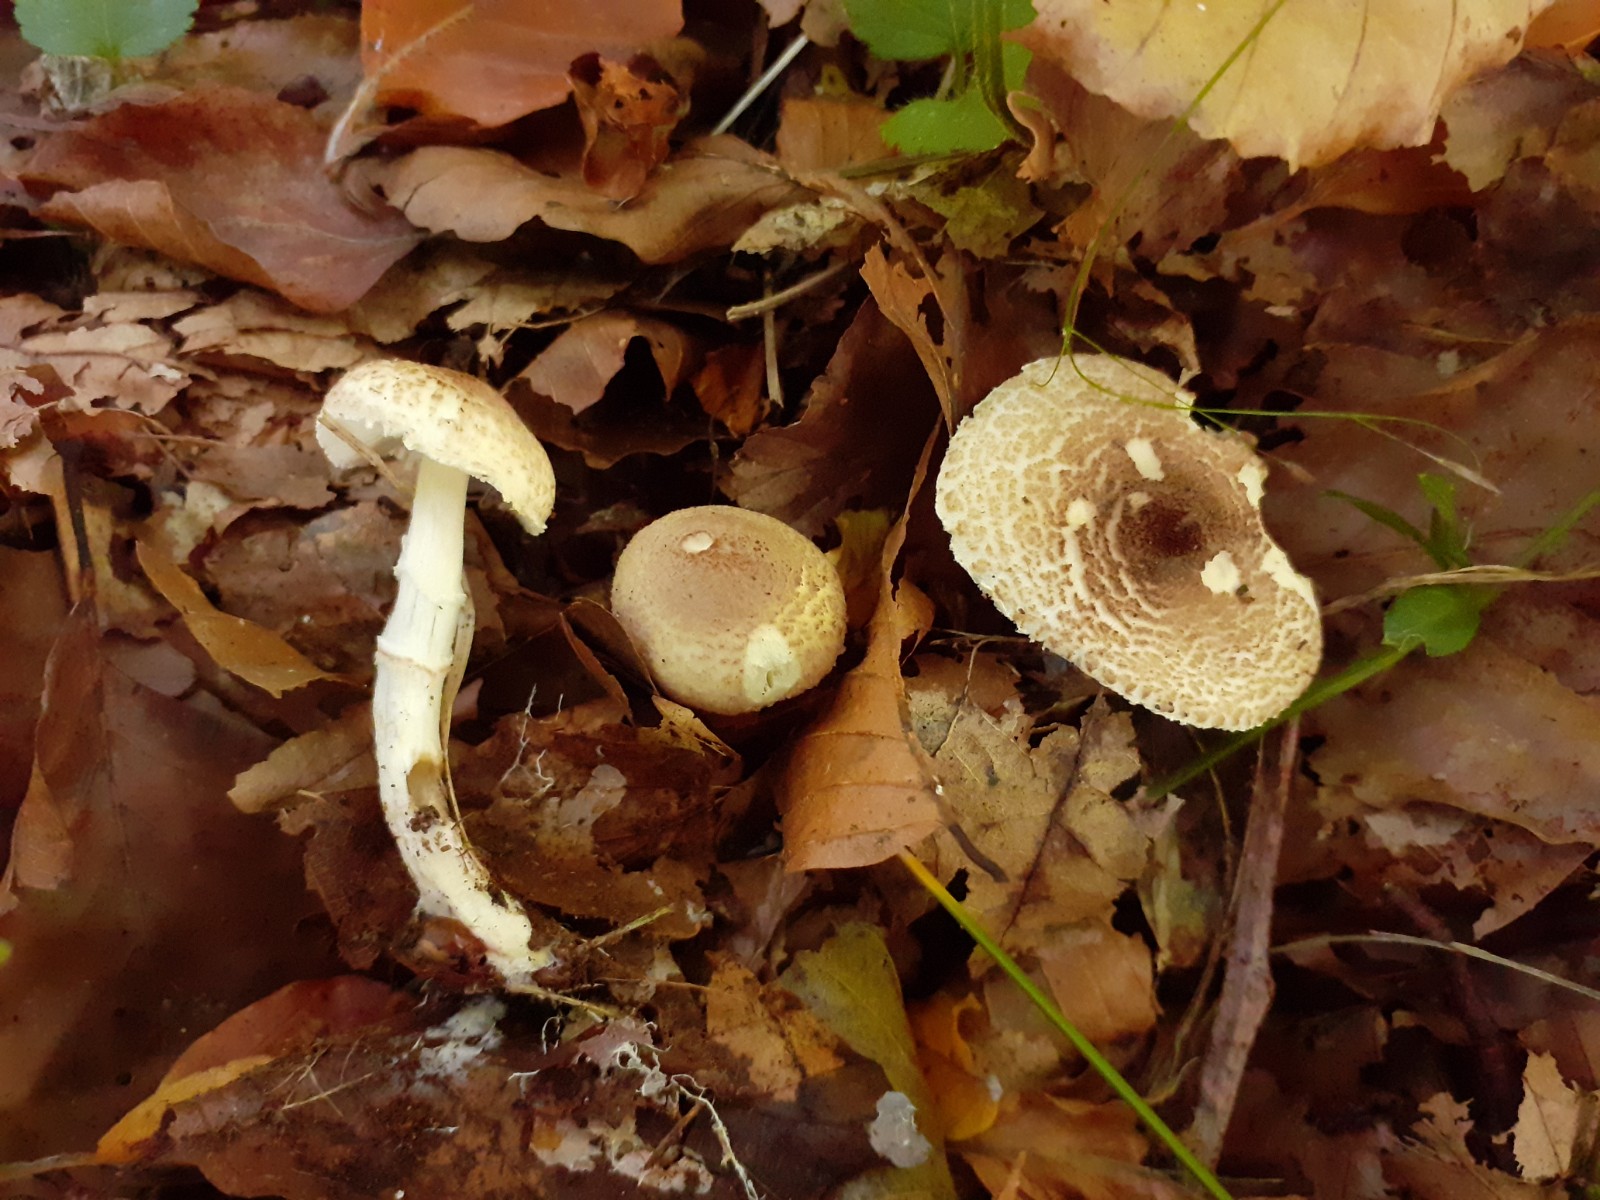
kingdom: Fungi
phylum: Basidiomycota
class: Agaricomycetes
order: Agaricales
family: Agaricaceae
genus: Lepiota
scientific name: Lepiota subgracilis
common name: elegant parasolhat
